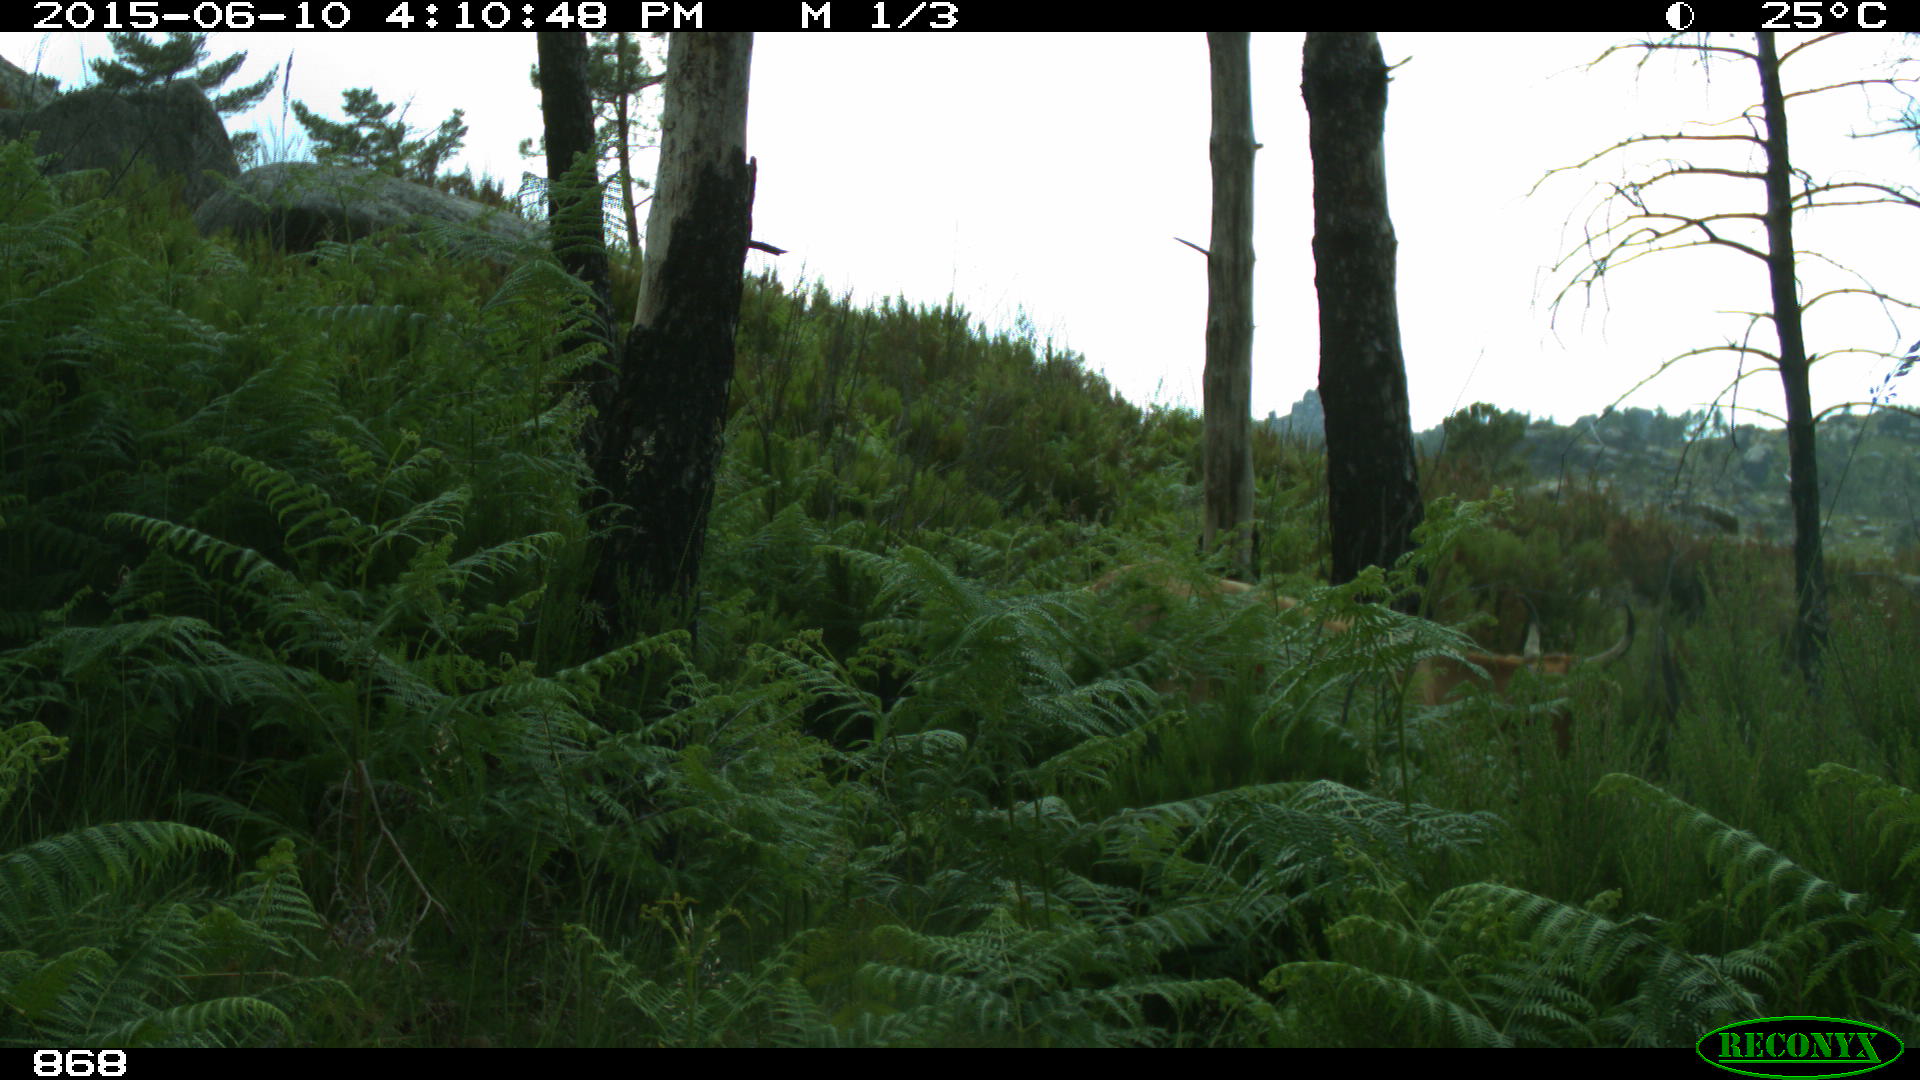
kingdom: Animalia
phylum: Chordata
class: Mammalia
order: Artiodactyla
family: Bovidae
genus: Bos
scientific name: Bos taurus
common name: Domesticated cattle
